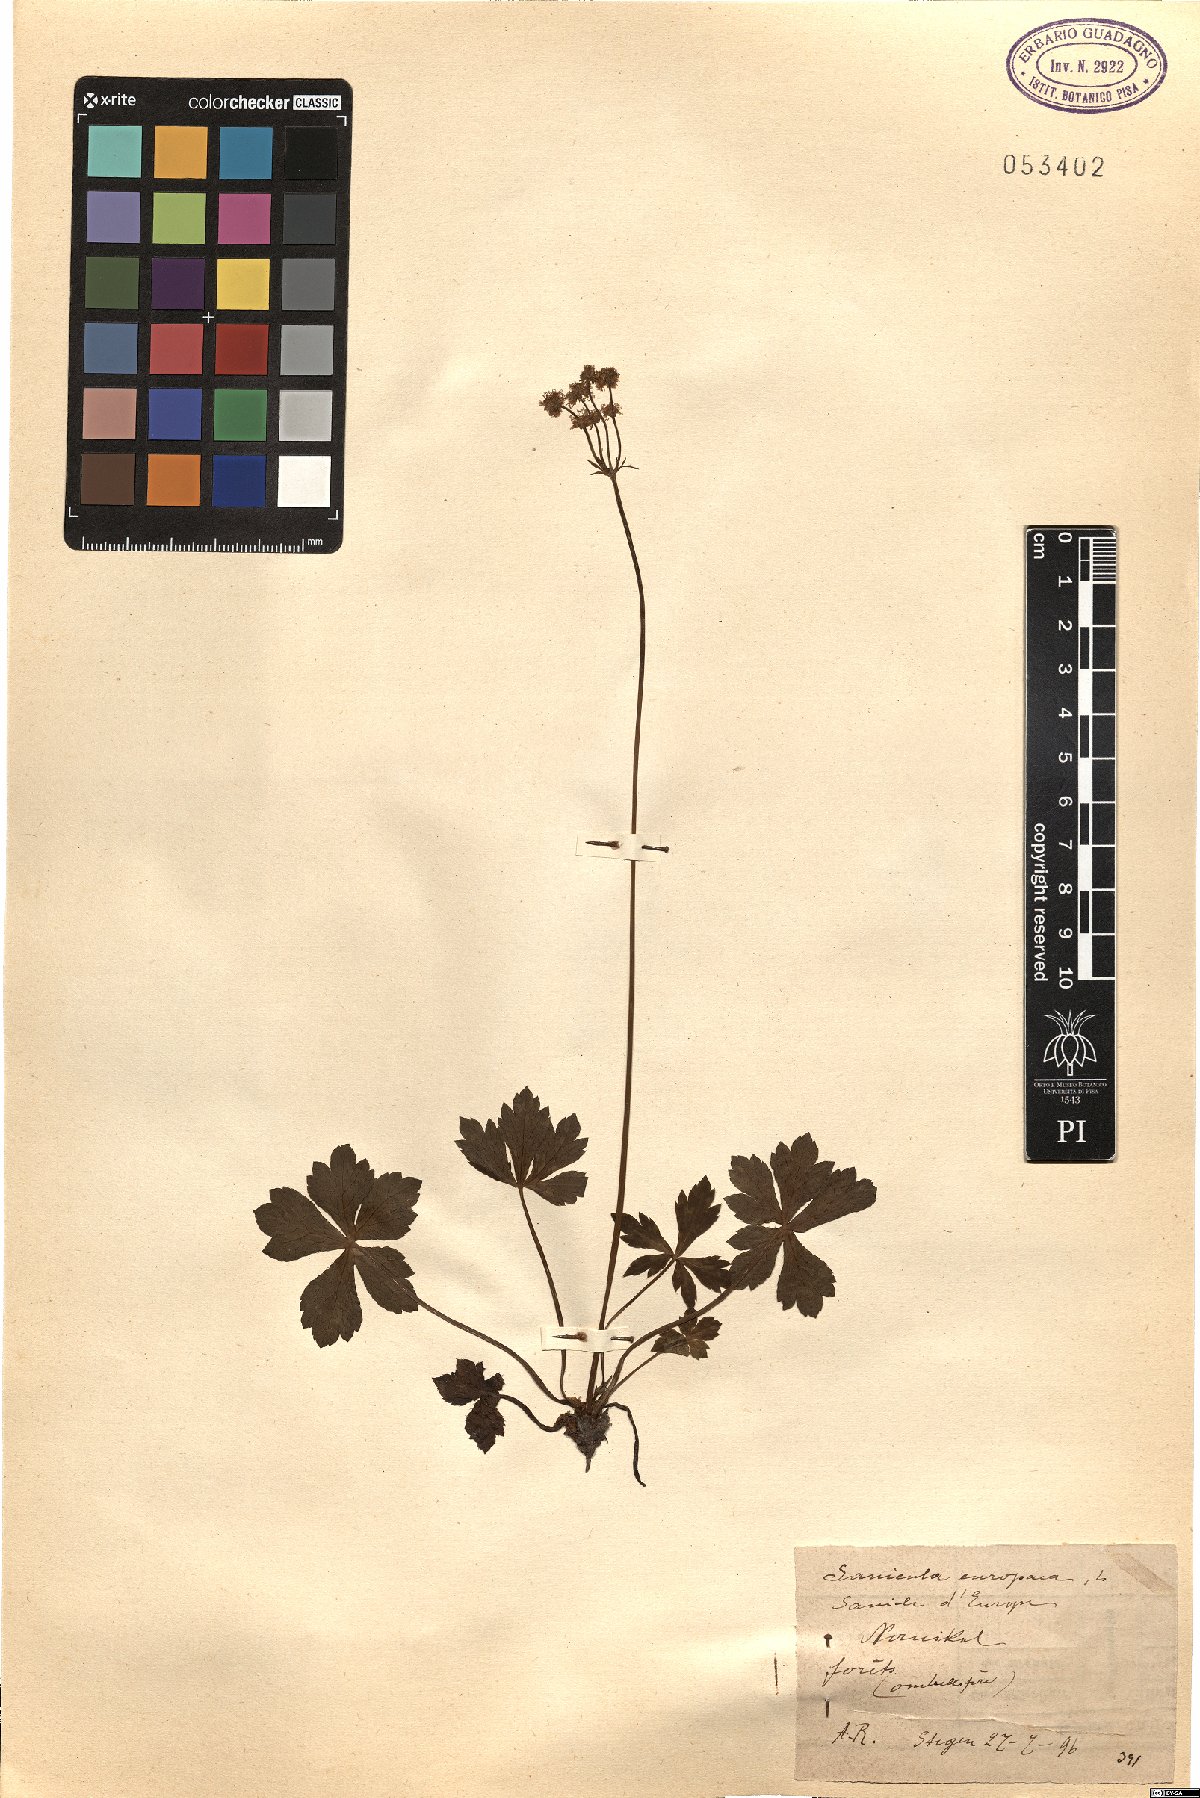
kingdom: Plantae
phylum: Tracheophyta
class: Magnoliopsida
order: Apiales
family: Apiaceae
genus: Sanicula
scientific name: Sanicula europaea
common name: Sanicle
